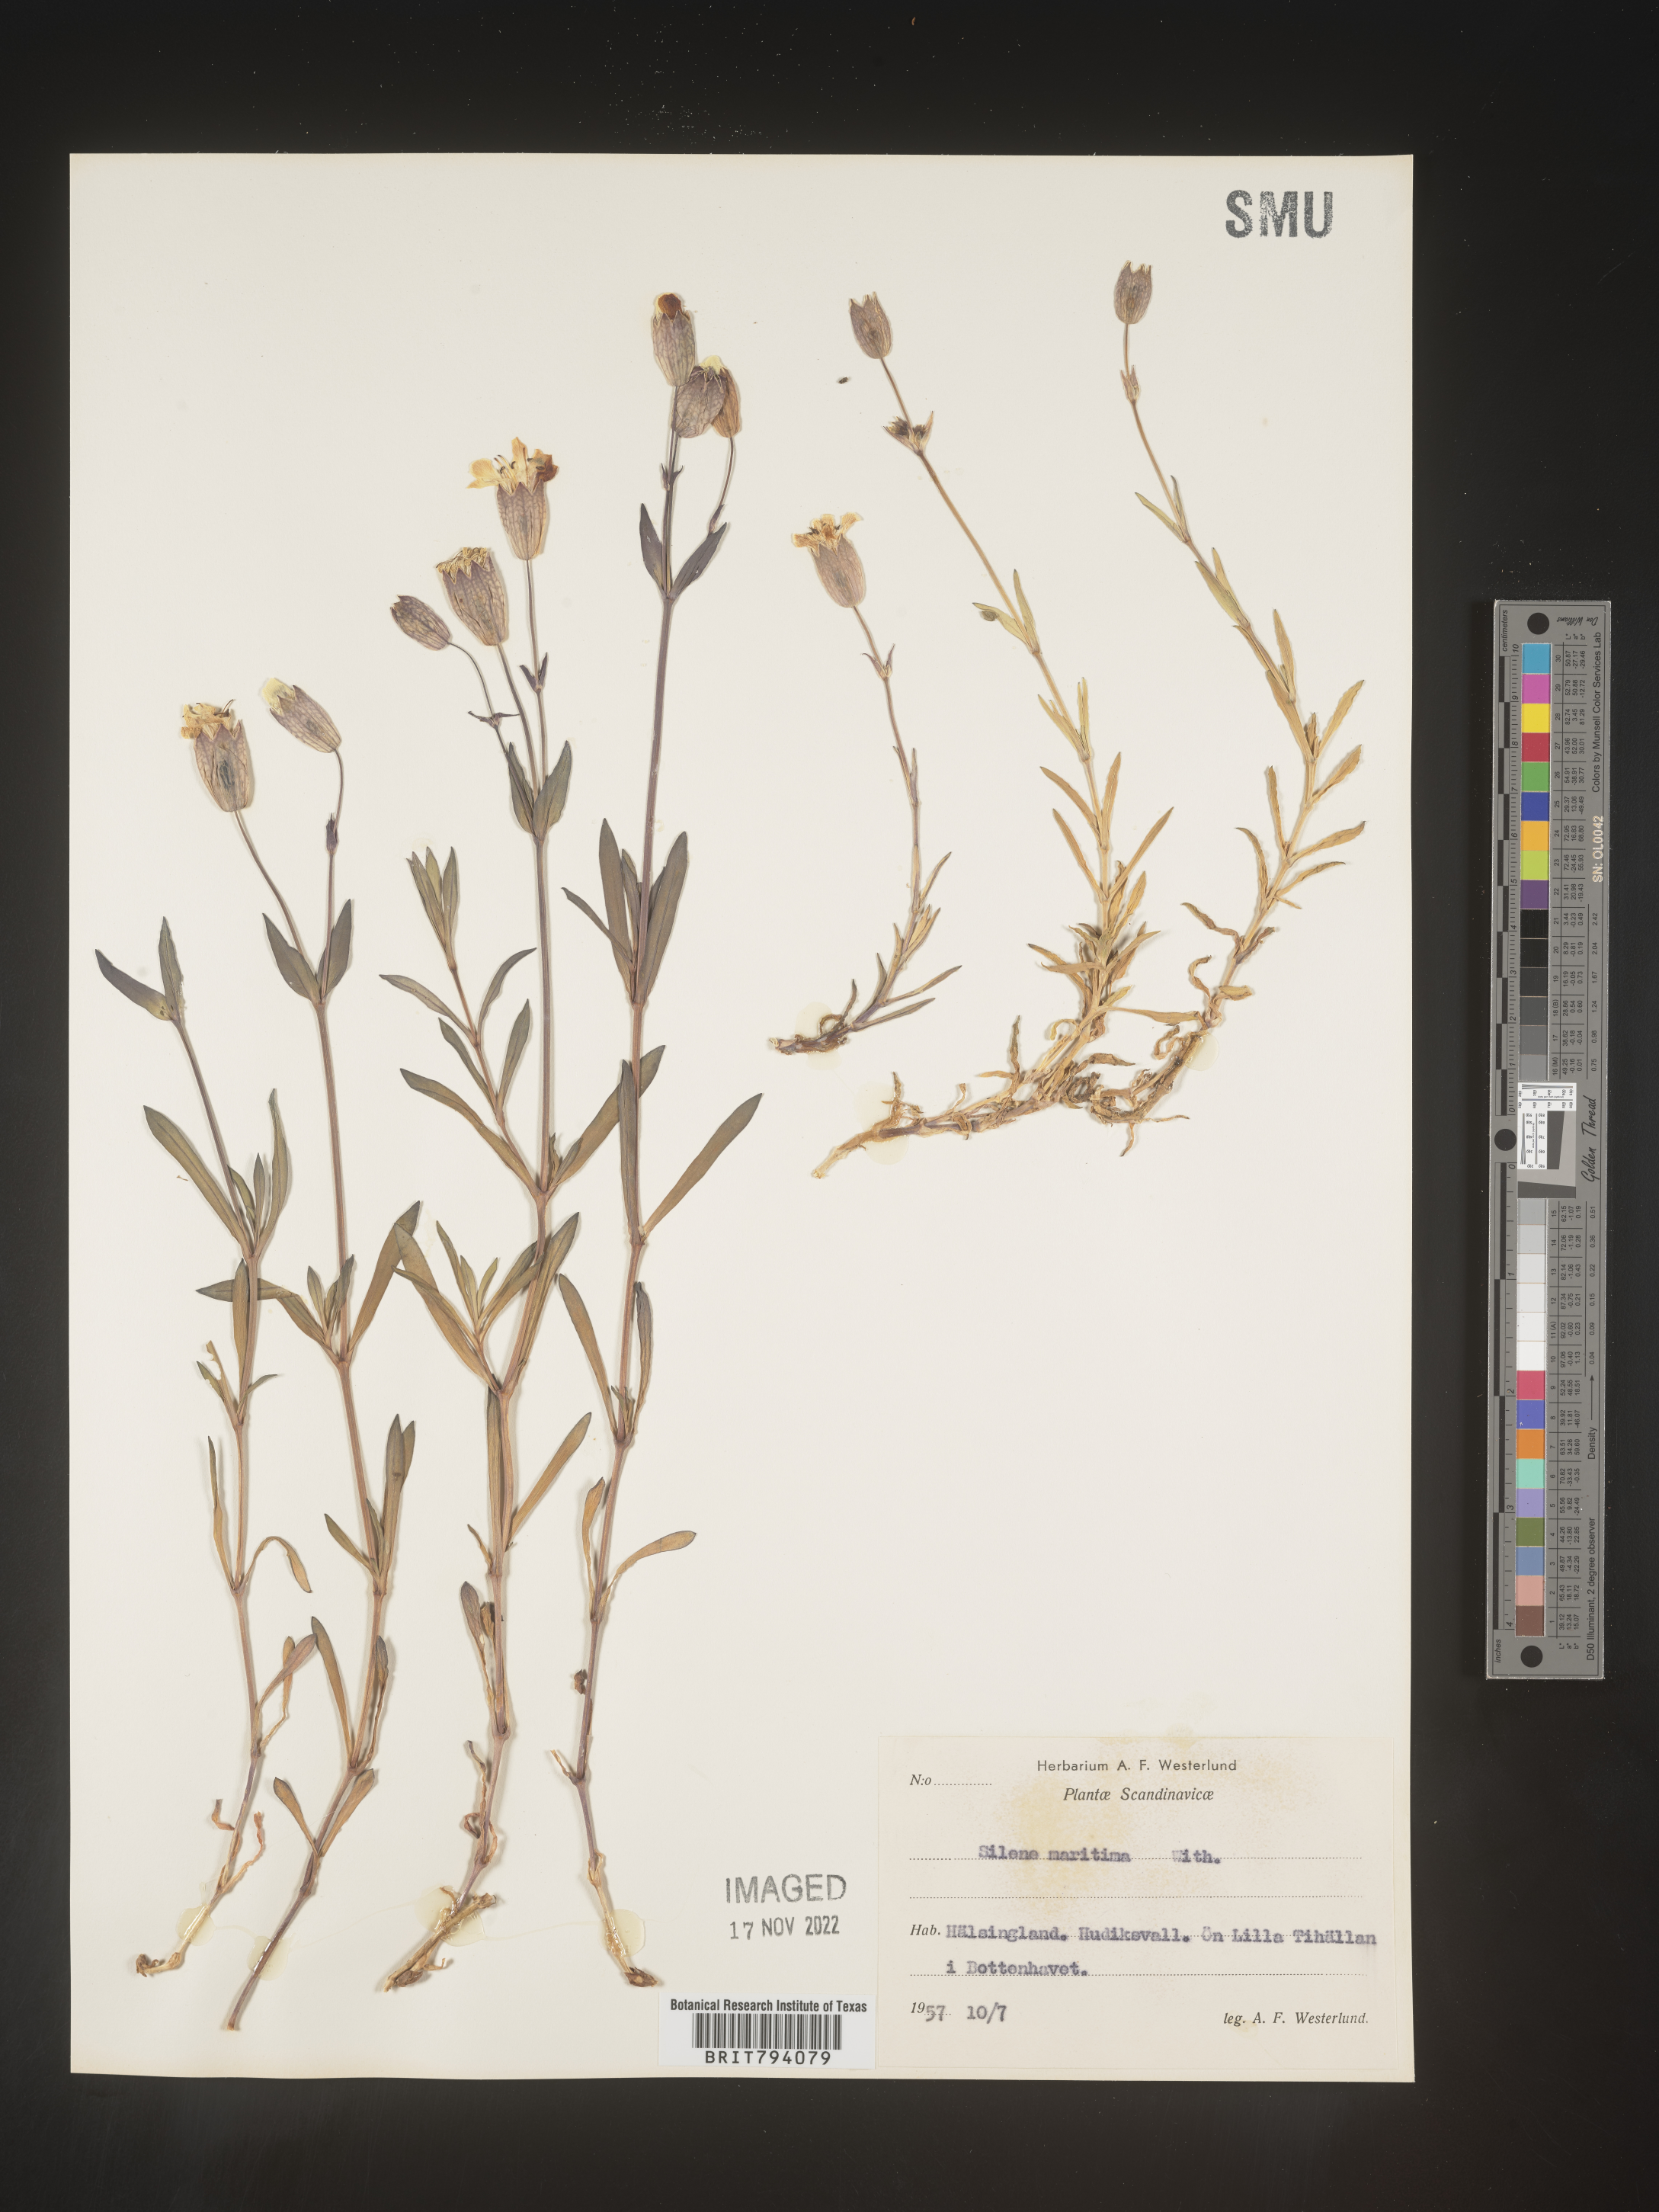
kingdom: Plantae
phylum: Tracheophyta
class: Magnoliopsida
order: Caryophyllales
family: Caryophyllaceae
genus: Silene
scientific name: Silene uniflora
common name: Sea campion
